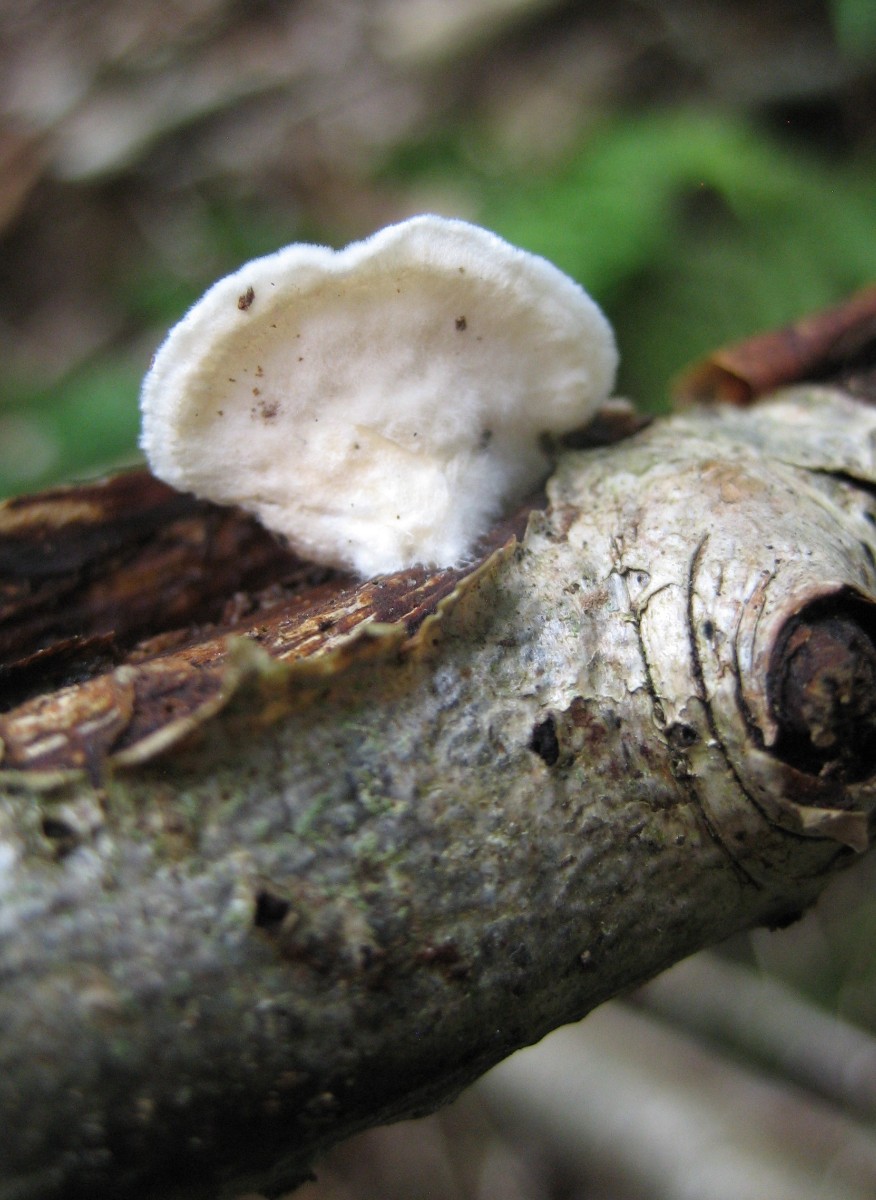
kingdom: Fungi
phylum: Basidiomycota
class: Agaricomycetes
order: Agaricales
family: Crepidotaceae
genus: Crepidotus
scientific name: Crepidotus
